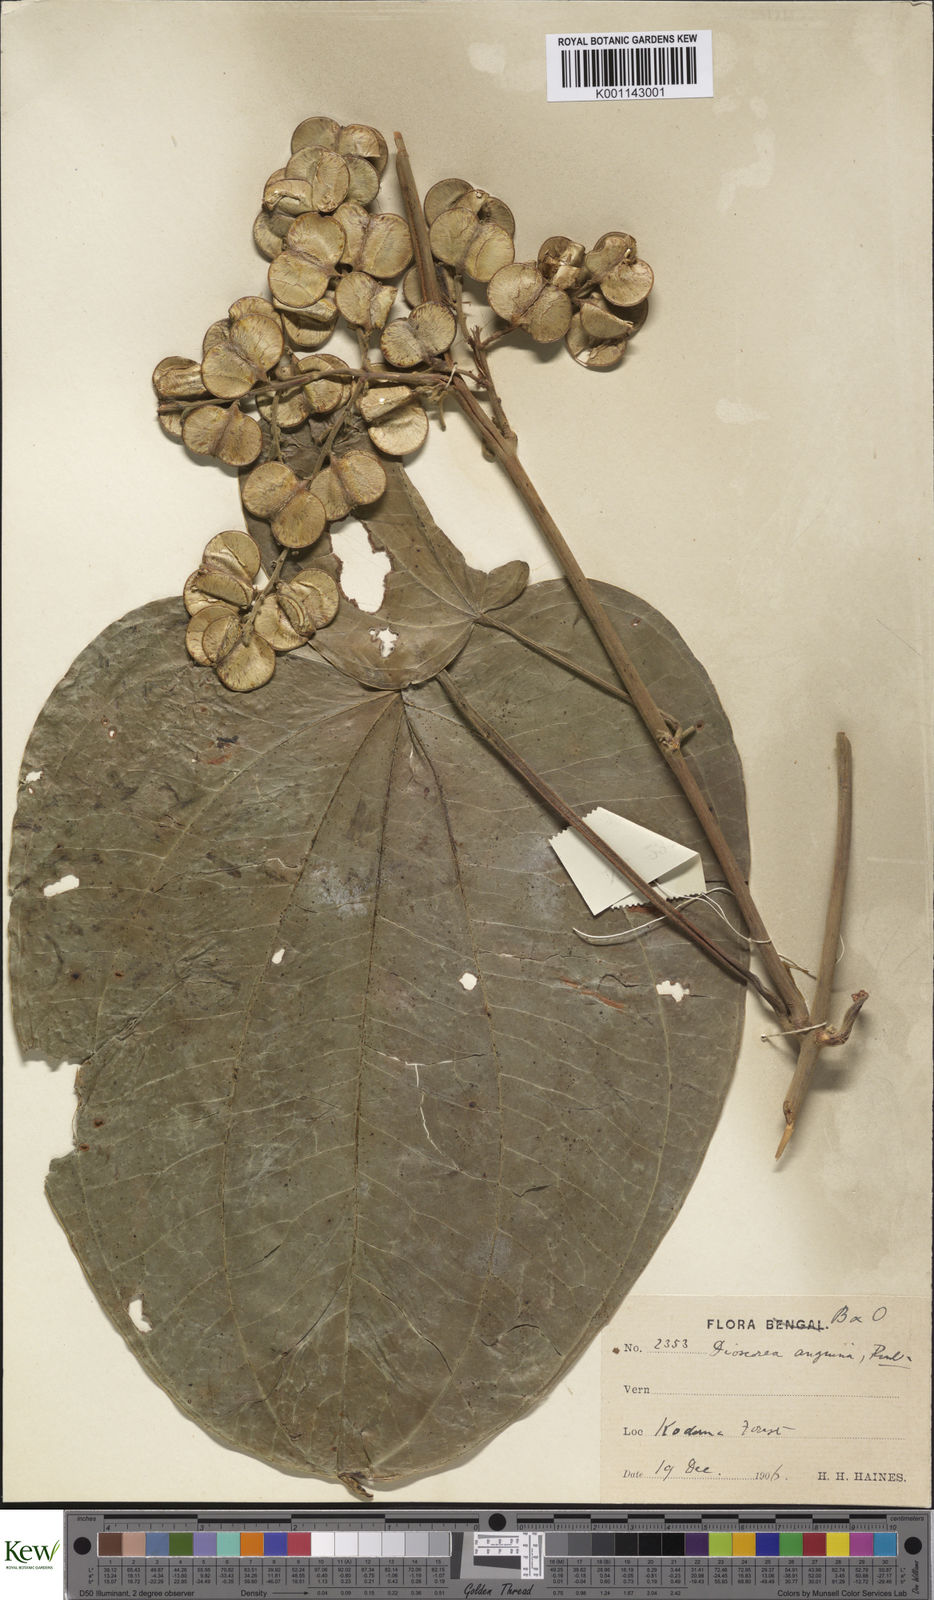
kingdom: Plantae
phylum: Tracheophyta
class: Liliopsida
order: Dioscoreales
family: Dioscoreaceae
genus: Dioscorea
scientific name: Dioscorea pubera
